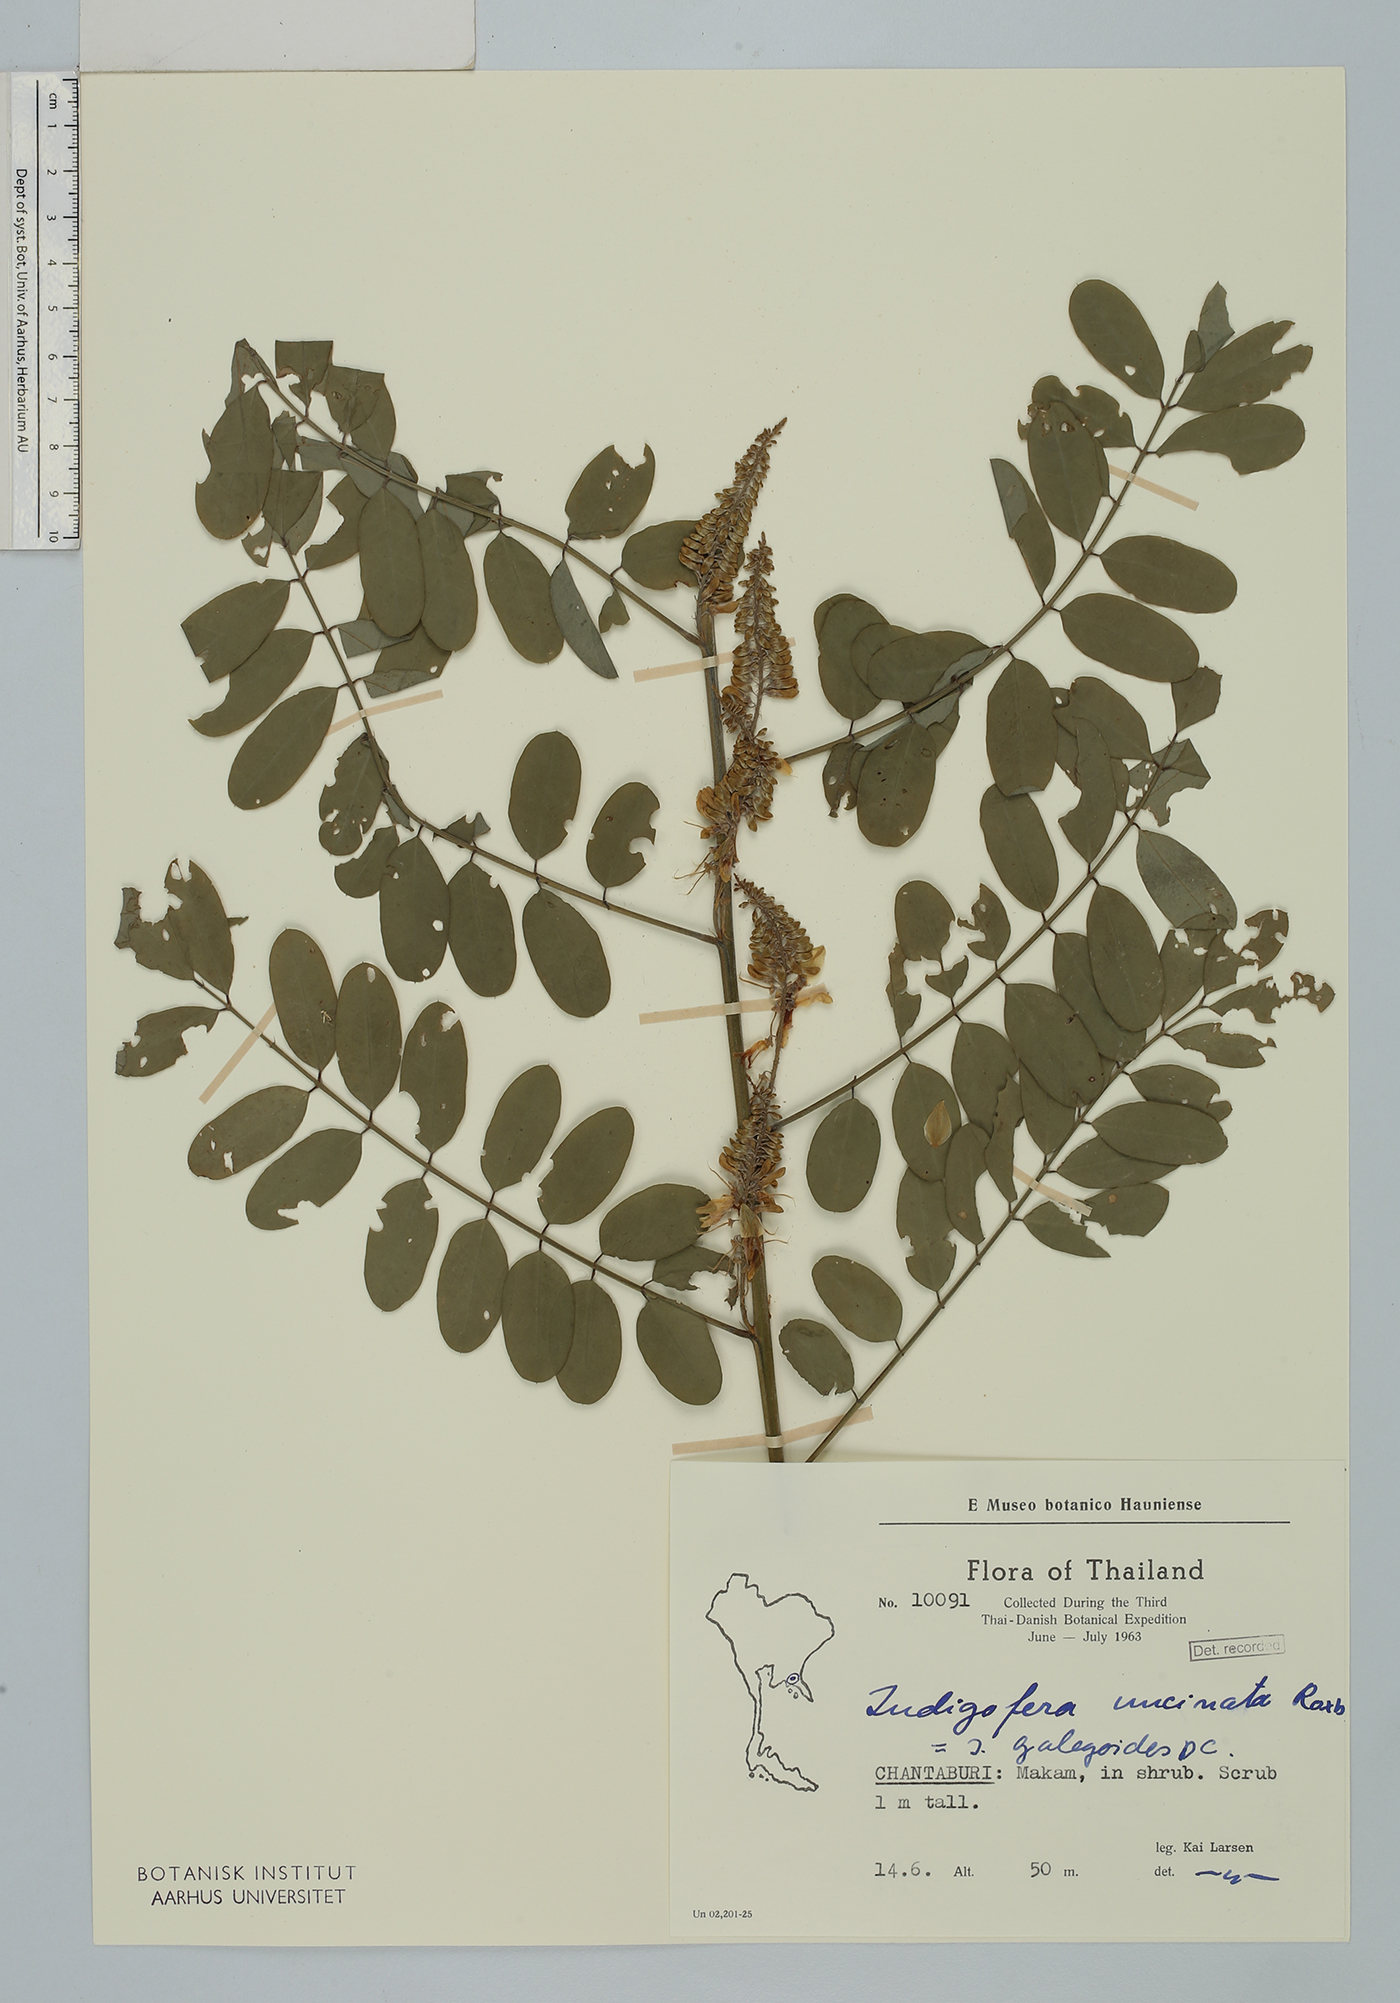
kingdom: Plantae
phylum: Tracheophyta
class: Magnoliopsida
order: Fabales
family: Fabaceae
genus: Indigofera
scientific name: Indigofera galegoides
